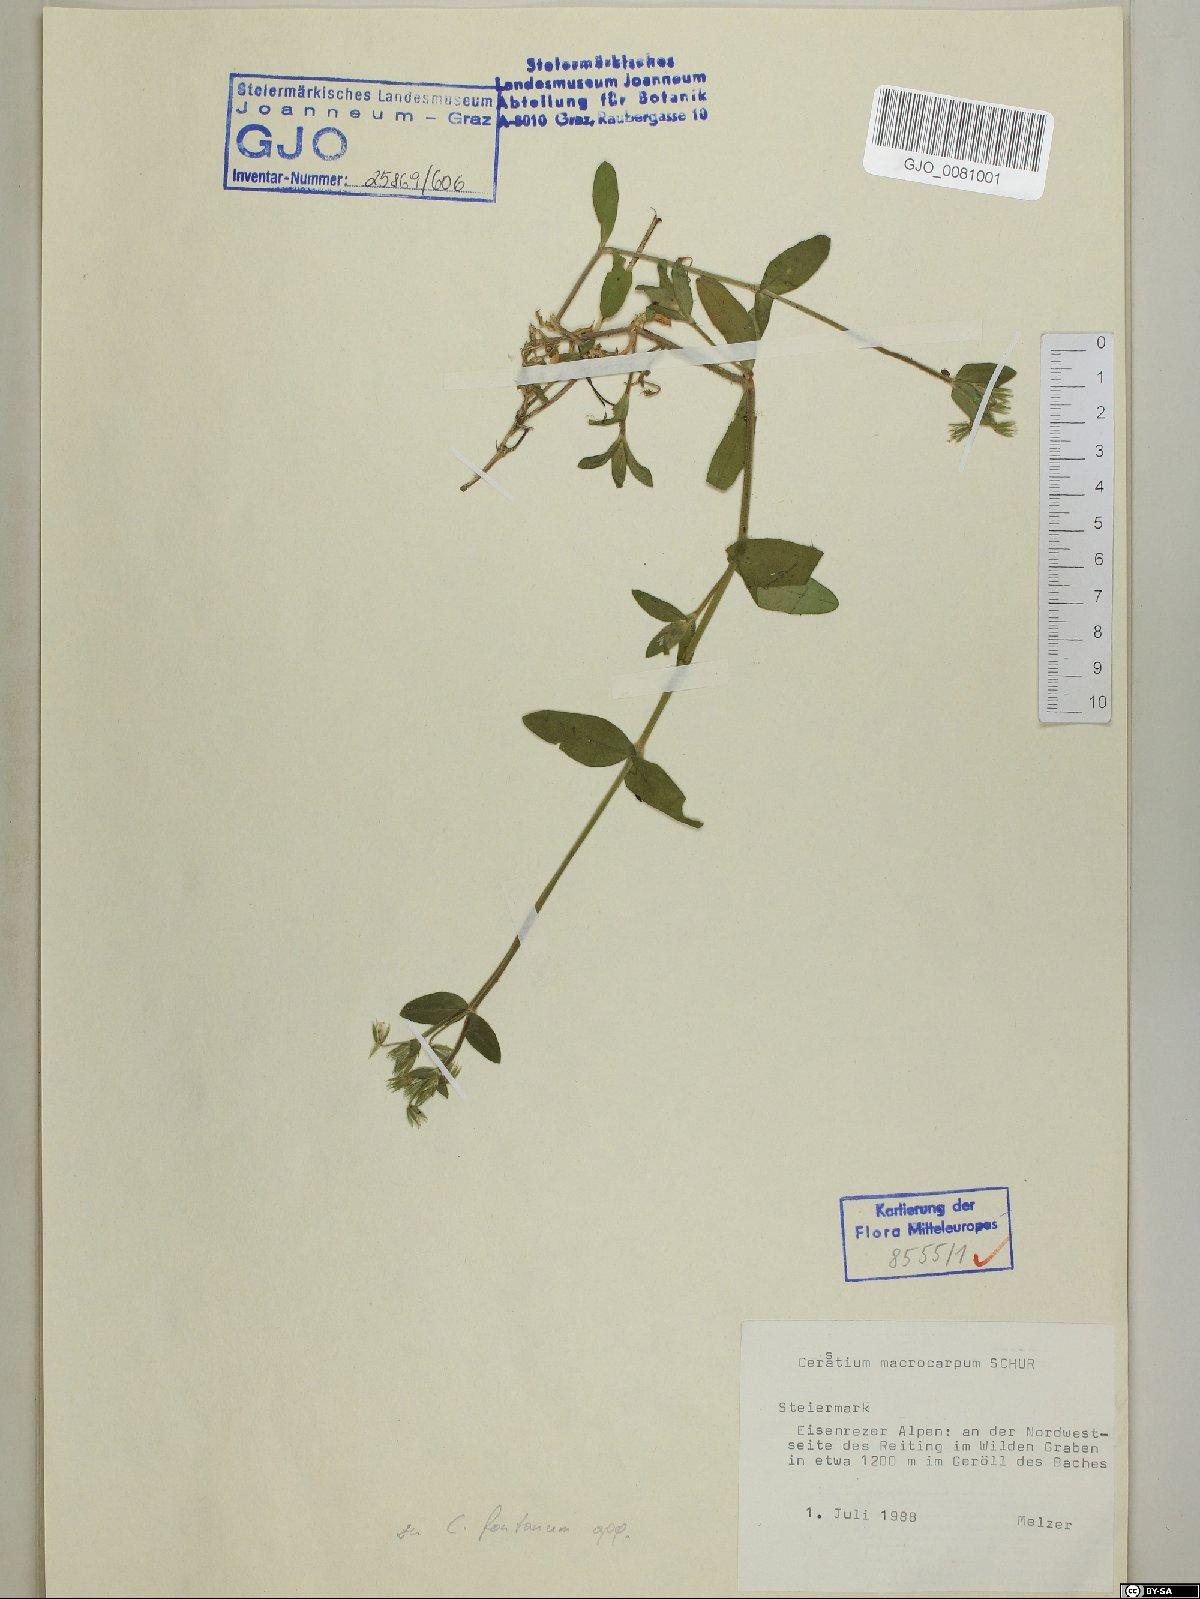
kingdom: Plantae
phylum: Tracheophyta
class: Magnoliopsida
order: Caryophyllales
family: Caryophyllaceae
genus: Cerastium
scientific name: Cerastium lucorum
